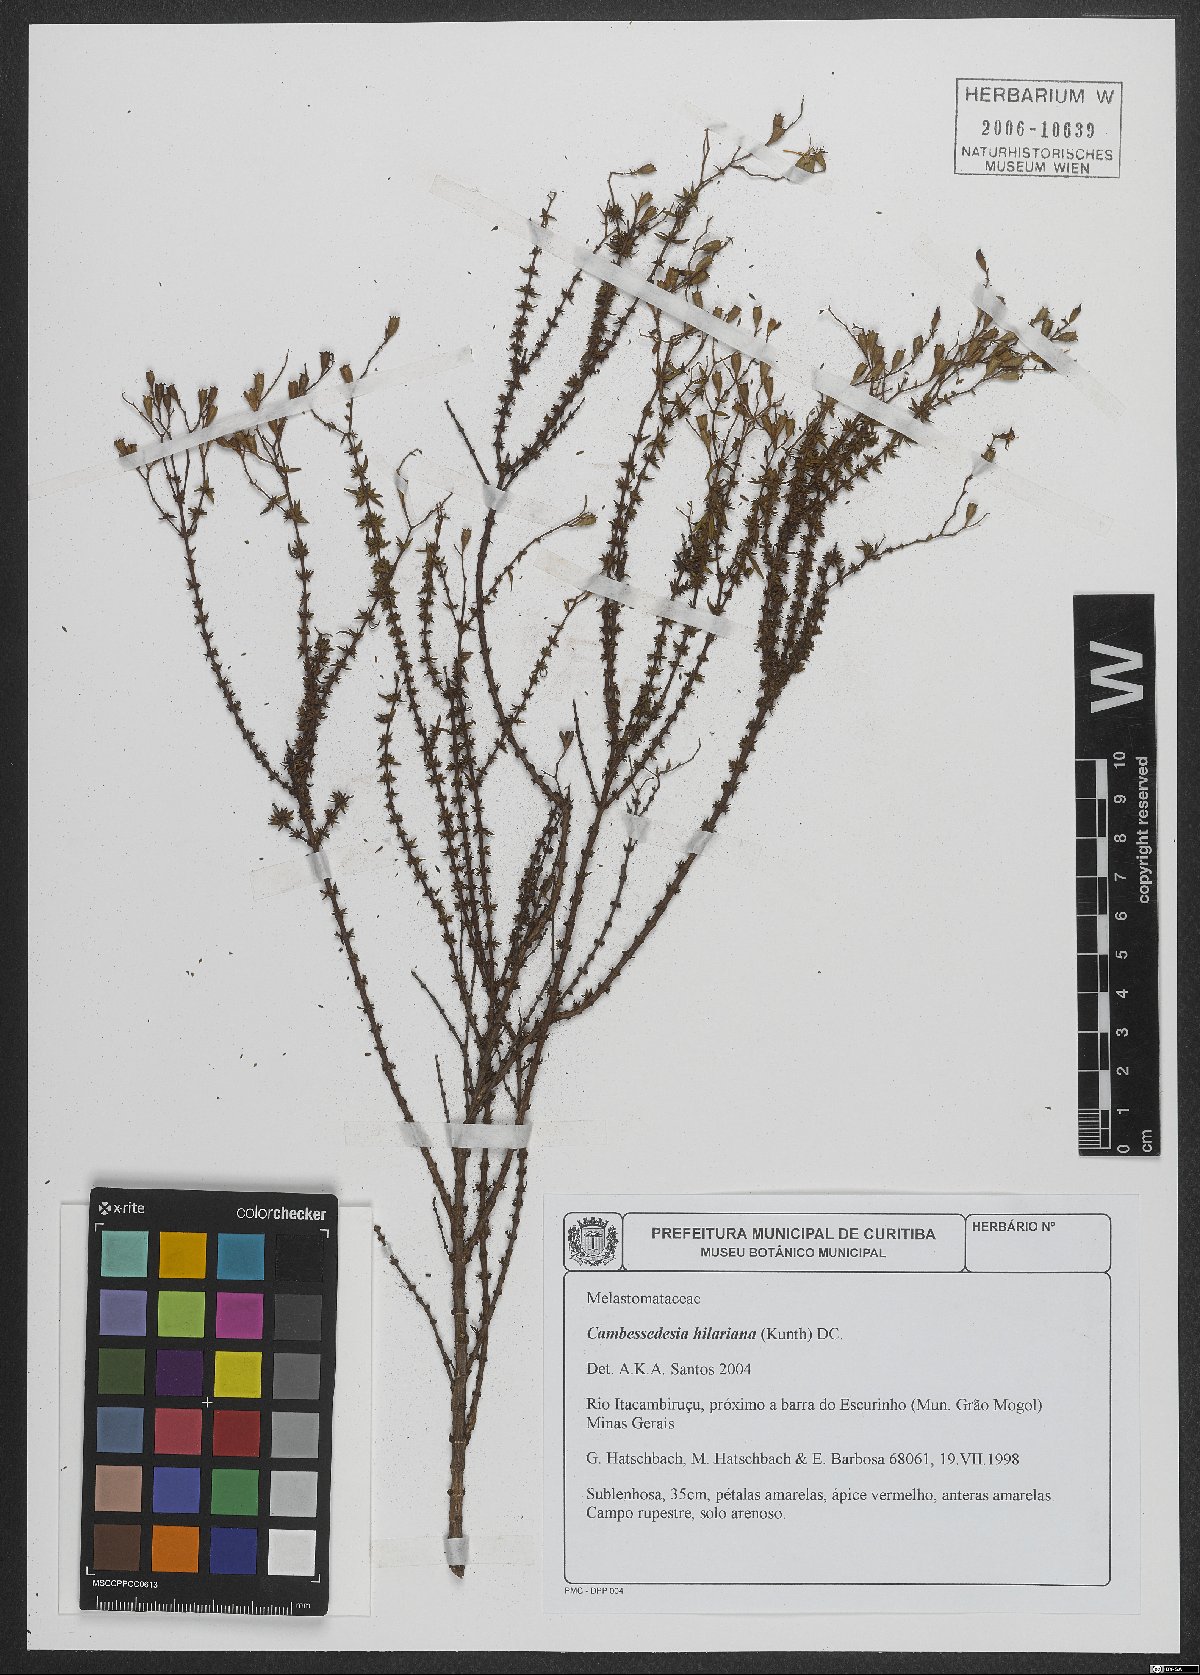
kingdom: Plantae
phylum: Tracheophyta
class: Magnoliopsida
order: Myrtales
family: Melastomataceae
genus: Cambessedesia
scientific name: Cambessedesia hilariana
